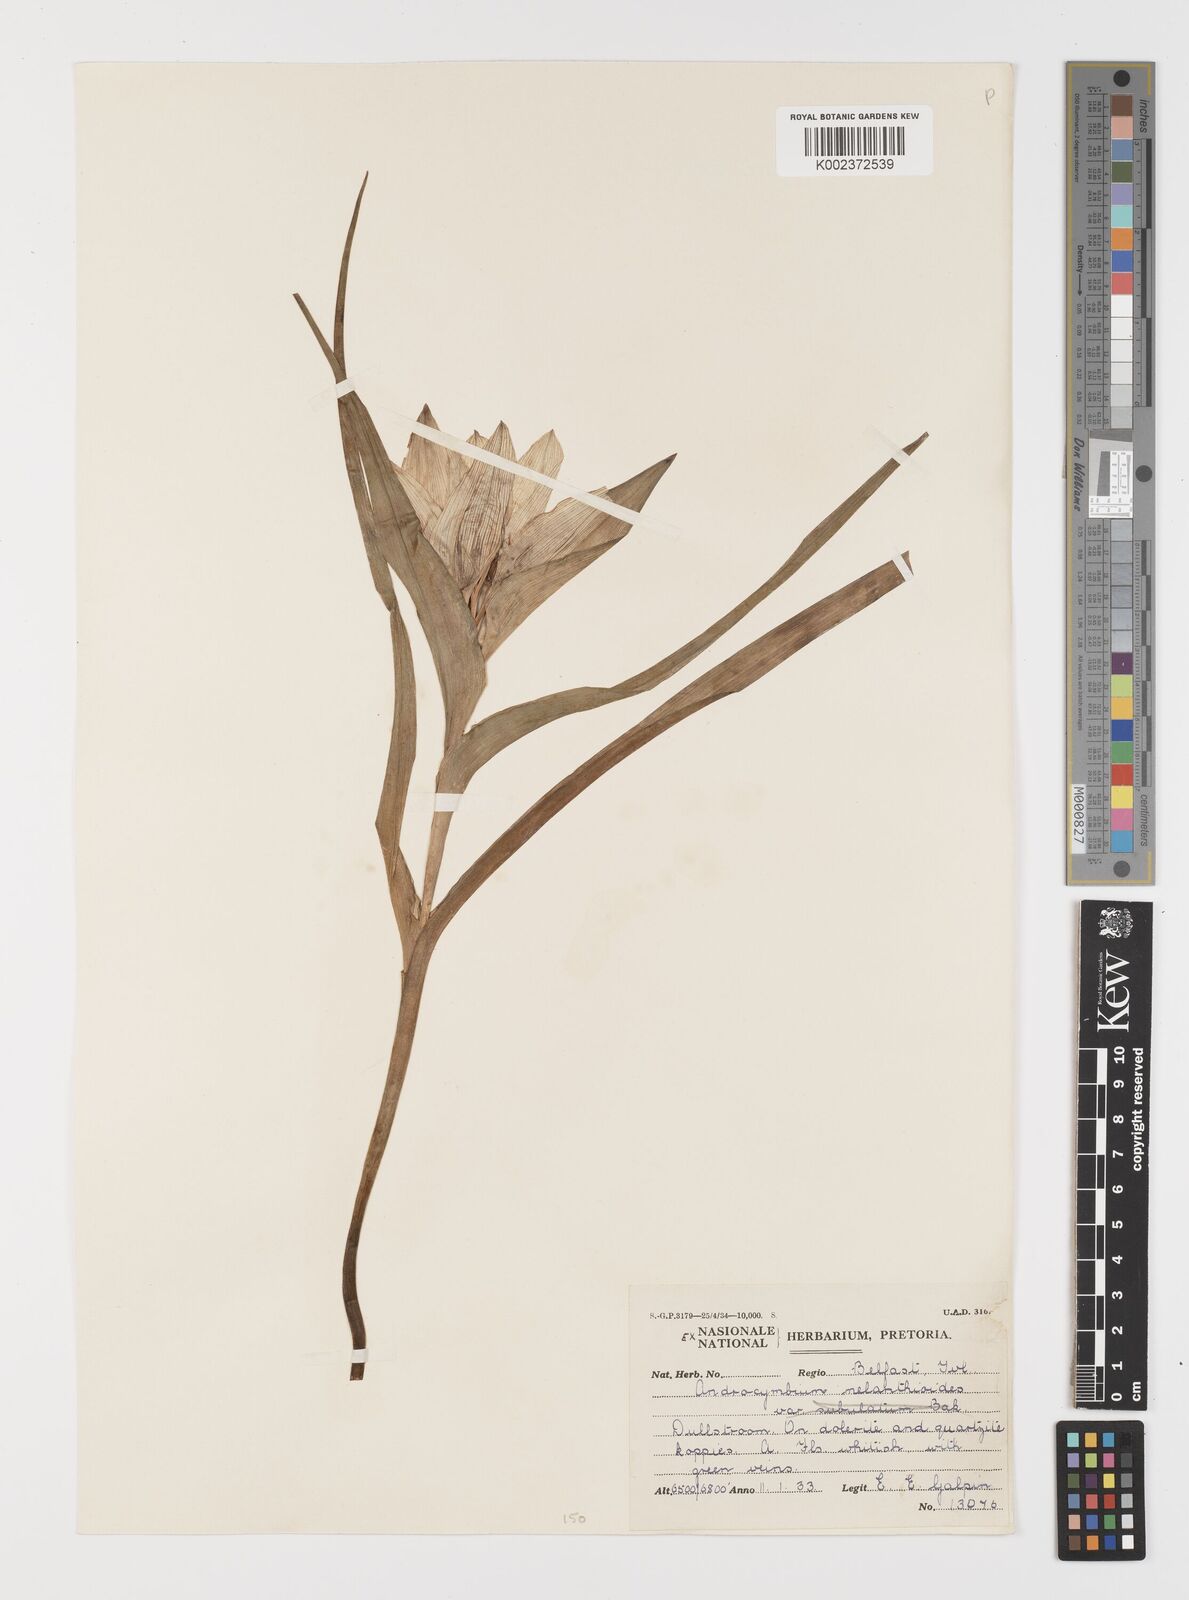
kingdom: Plantae
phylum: Tracheophyta
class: Liliopsida
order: Liliales
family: Colchicaceae
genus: Colchicum
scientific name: Colchicum melanthioides
